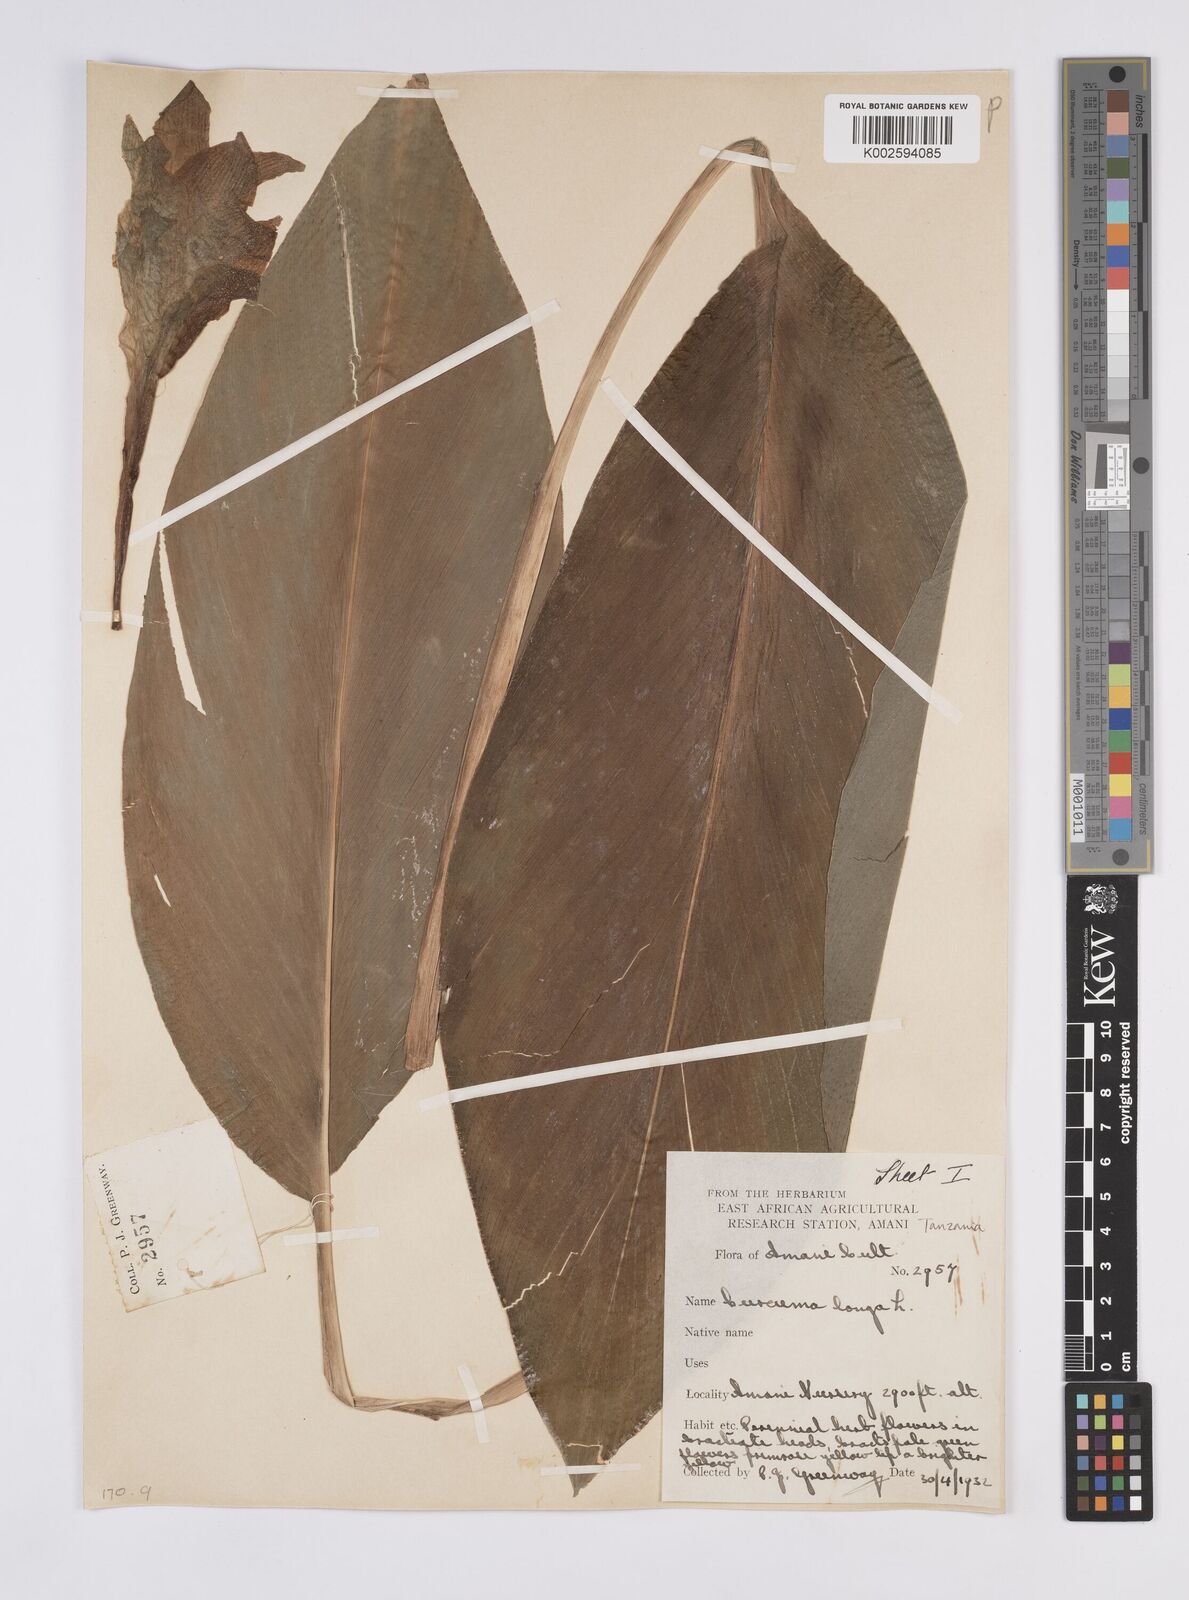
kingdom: Plantae
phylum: Tracheophyta
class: Liliopsida
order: Zingiberales
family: Zingiberaceae
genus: Curcuma
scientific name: Curcuma longa
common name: Turmeric
